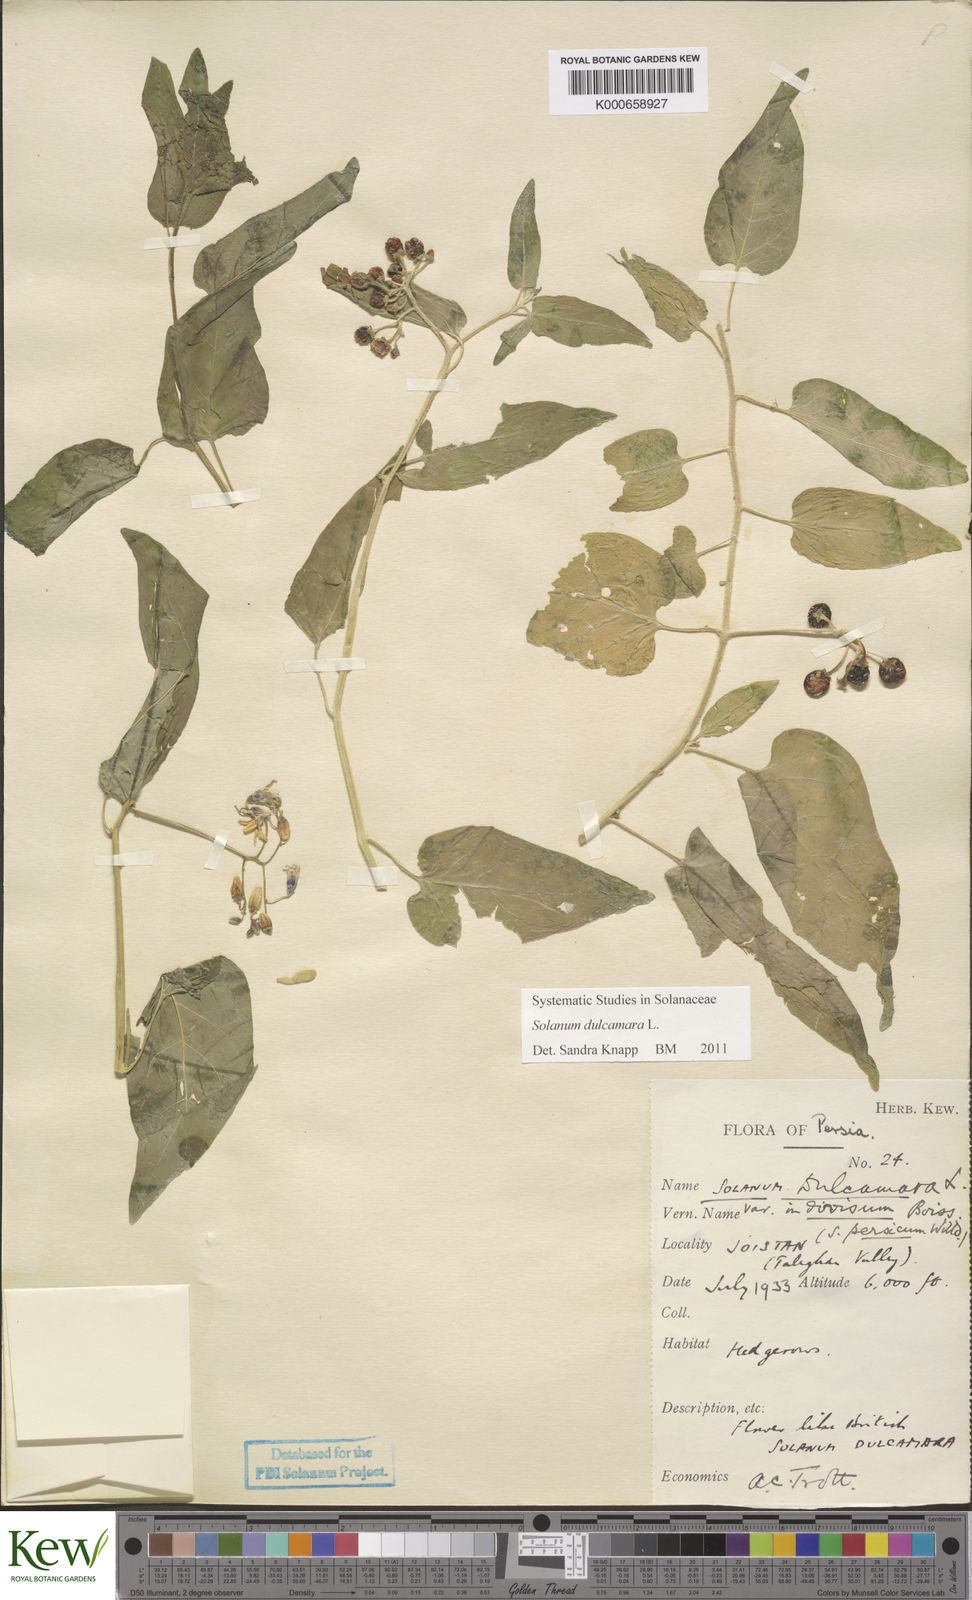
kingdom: Plantae
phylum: Tracheophyta
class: Magnoliopsida
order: Solanales
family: Solanaceae
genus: Solanum
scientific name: Solanum dulcamara
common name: Climbing nightshade
